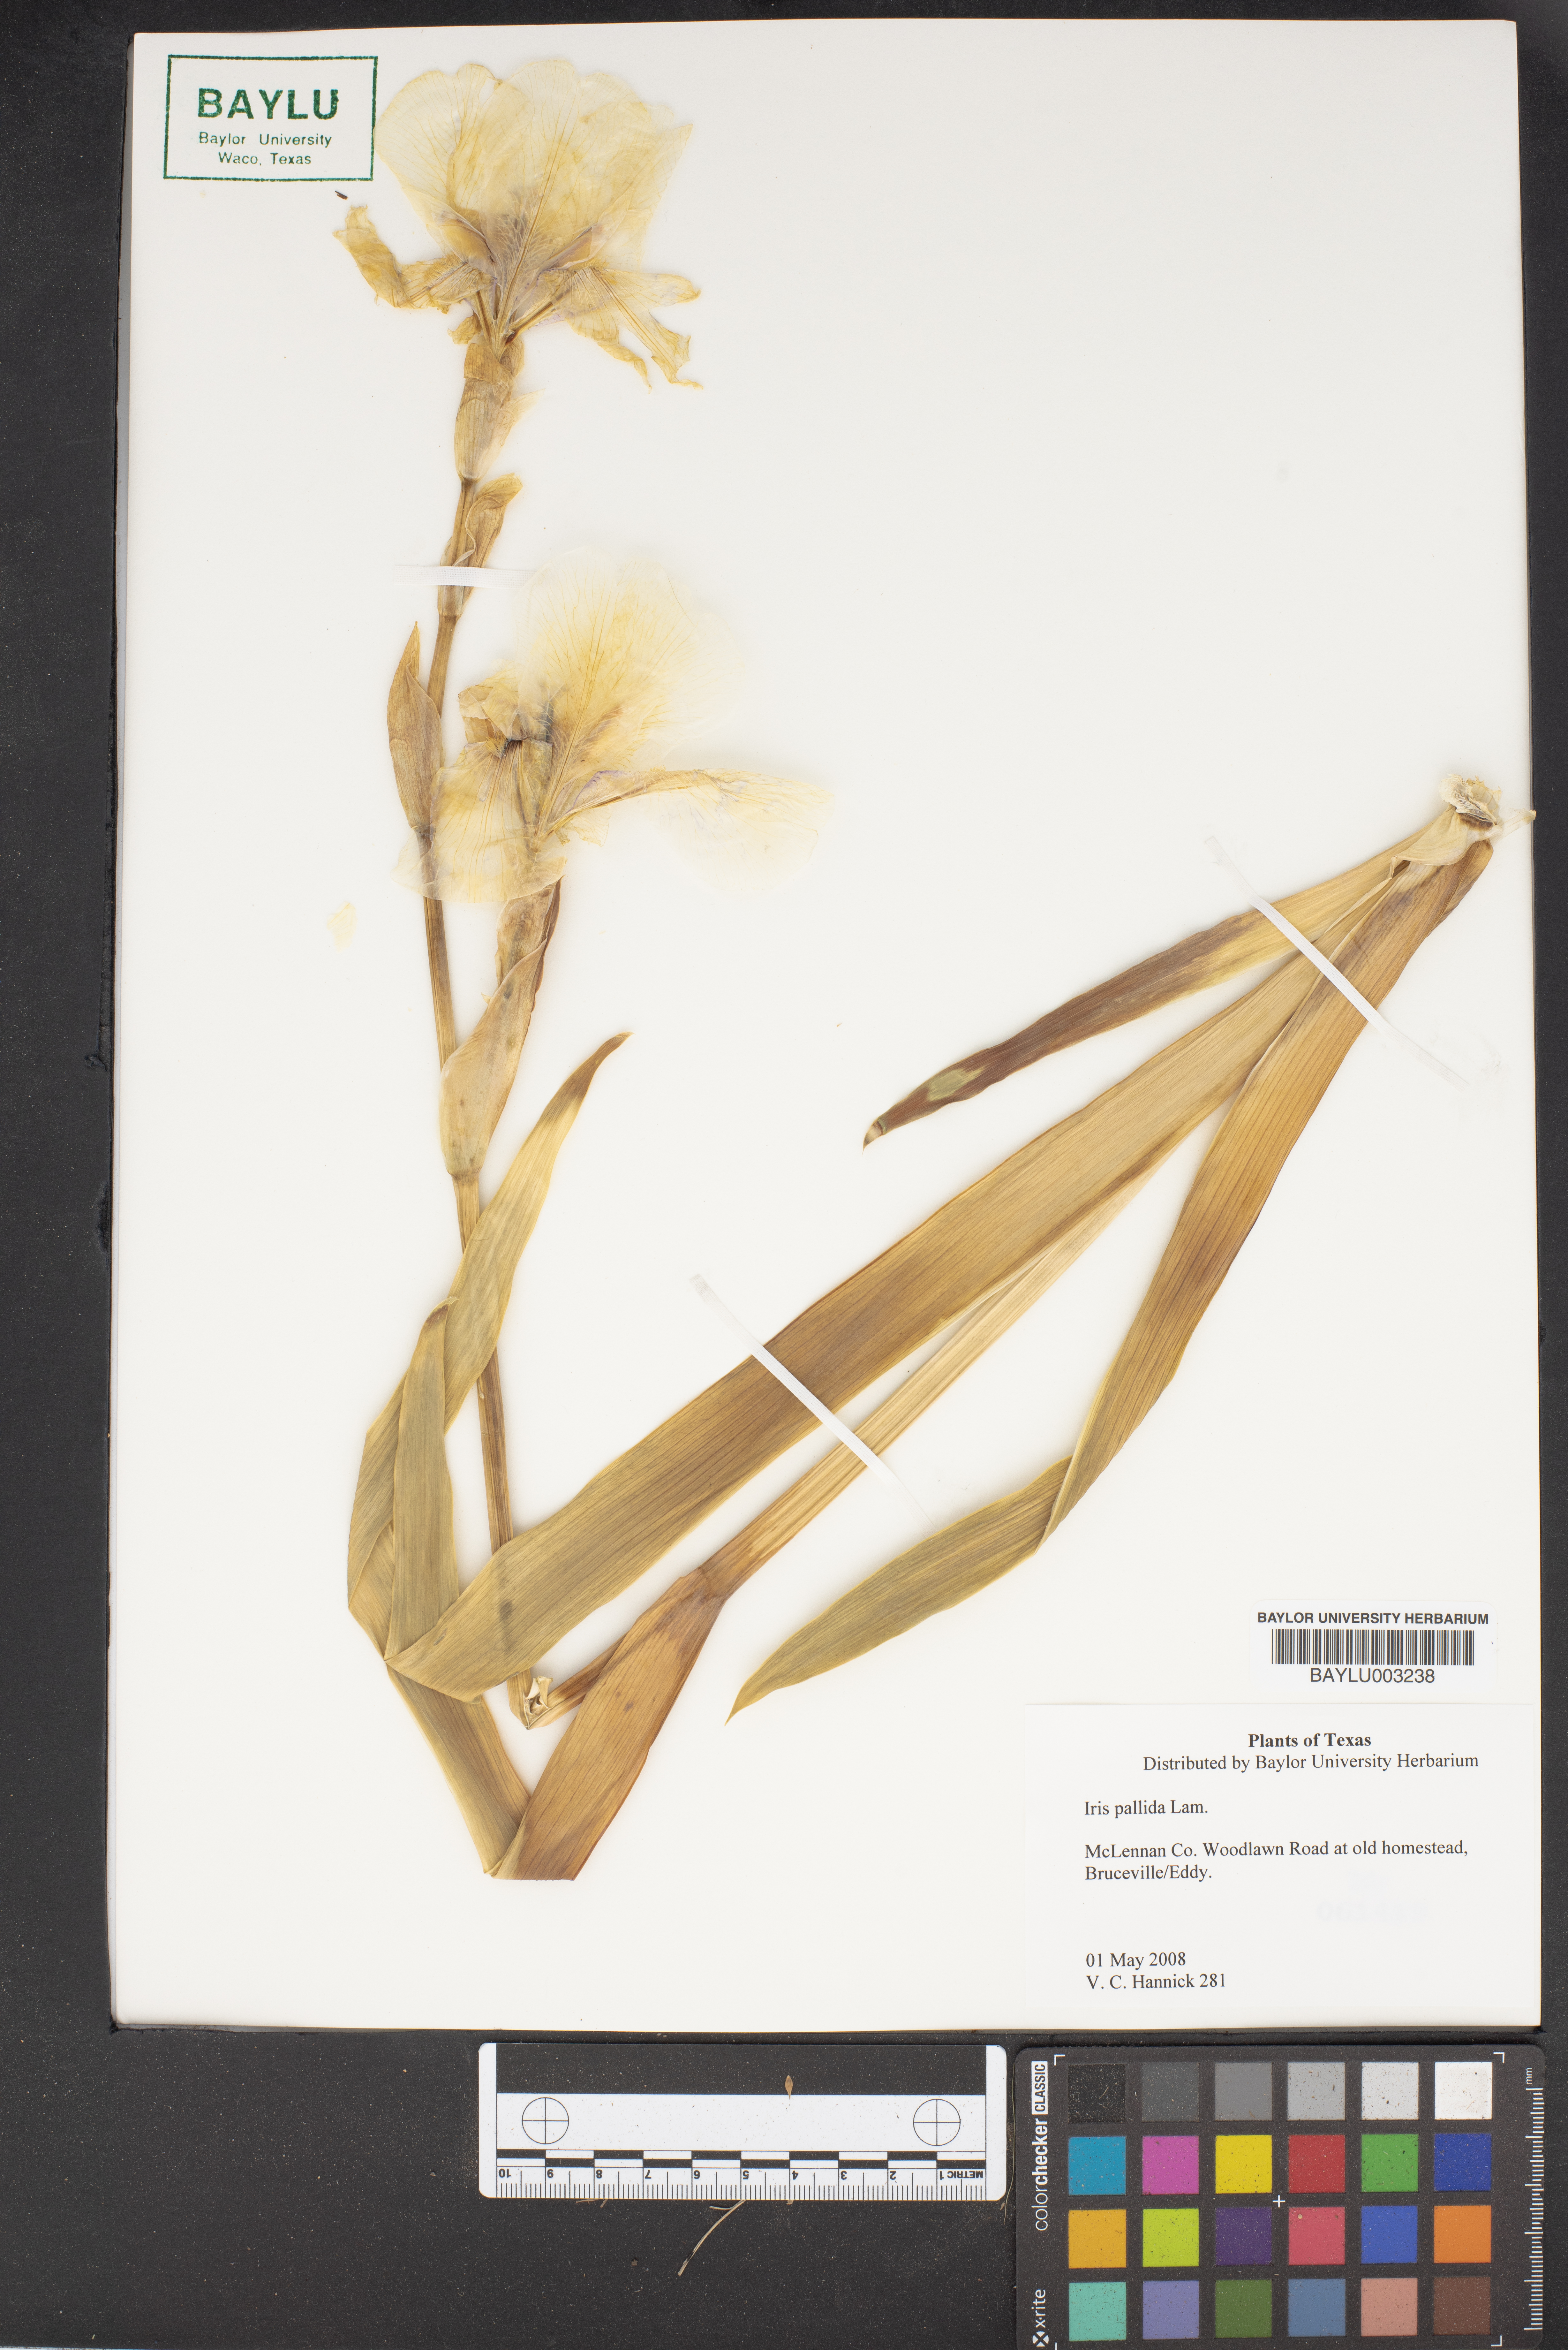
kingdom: Plantae
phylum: Tracheophyta
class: Liliopsida
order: Asparagales
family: Iridaceae
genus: Iris
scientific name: Iris pallida
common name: Sweet iris
